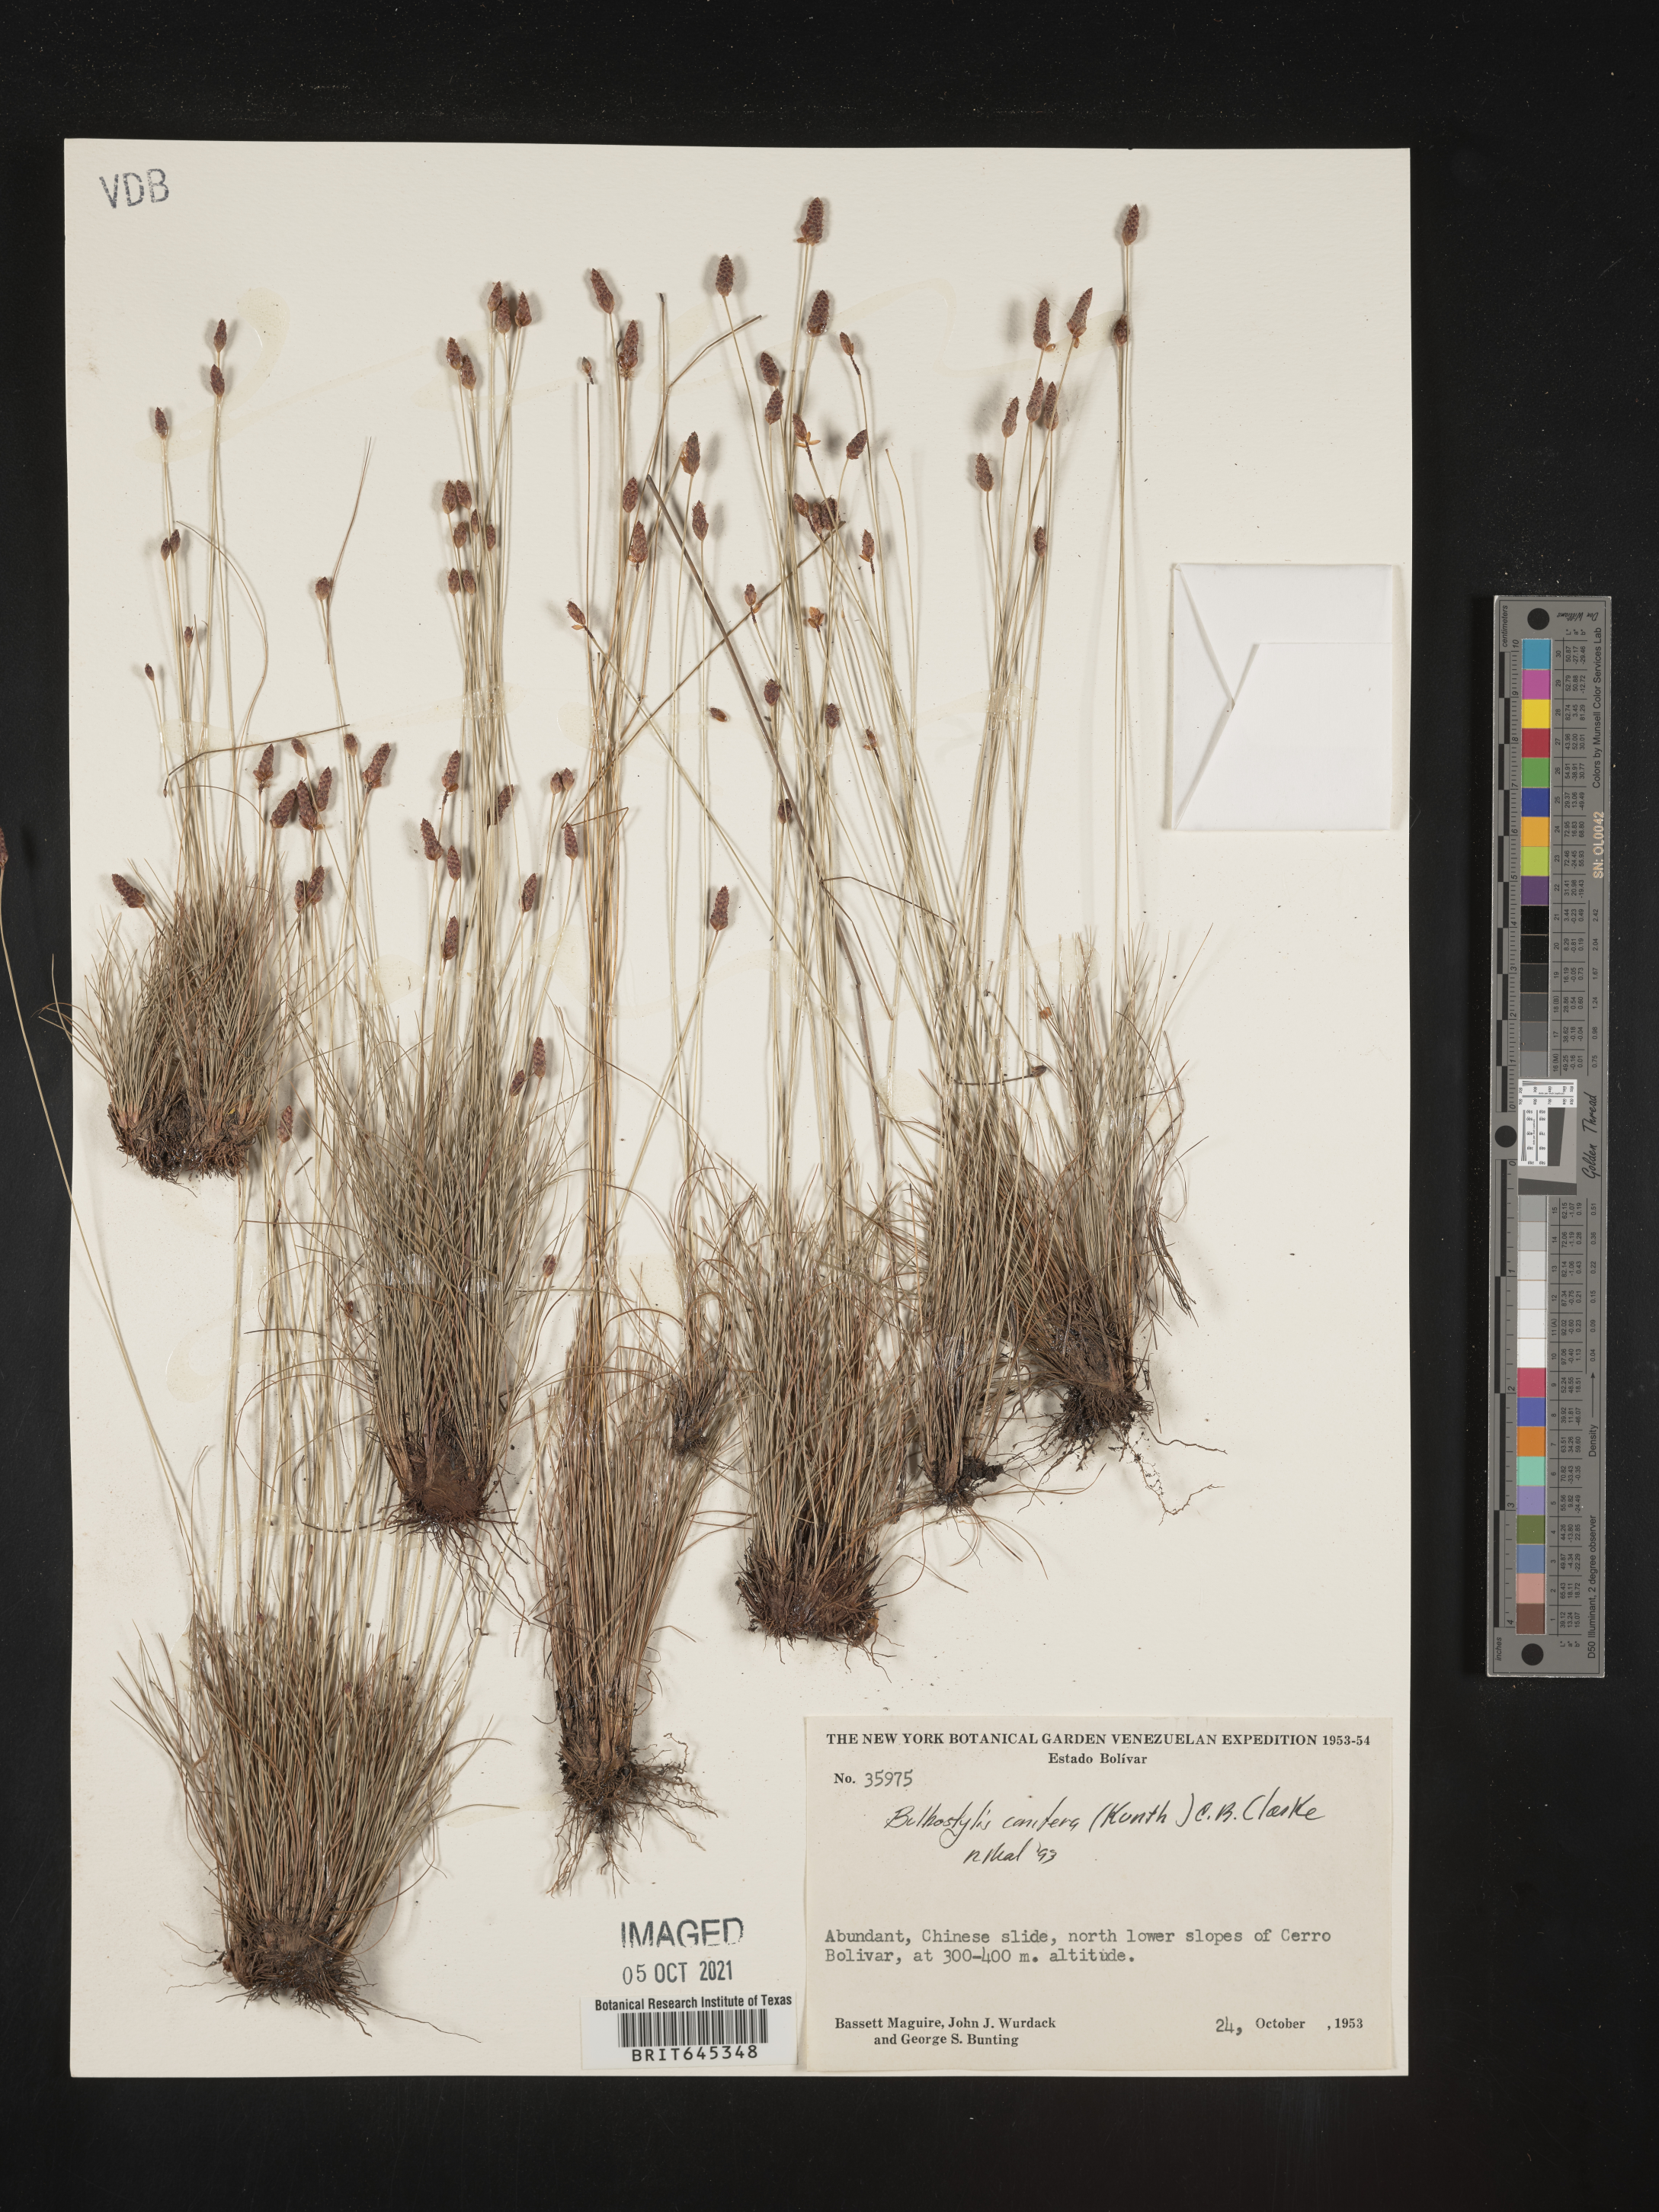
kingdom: Plantae
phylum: Tracheophyta
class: Liliopsida
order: Poales
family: Cyperaceae
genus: Bulbostylis
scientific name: Bulbostylis conifera
